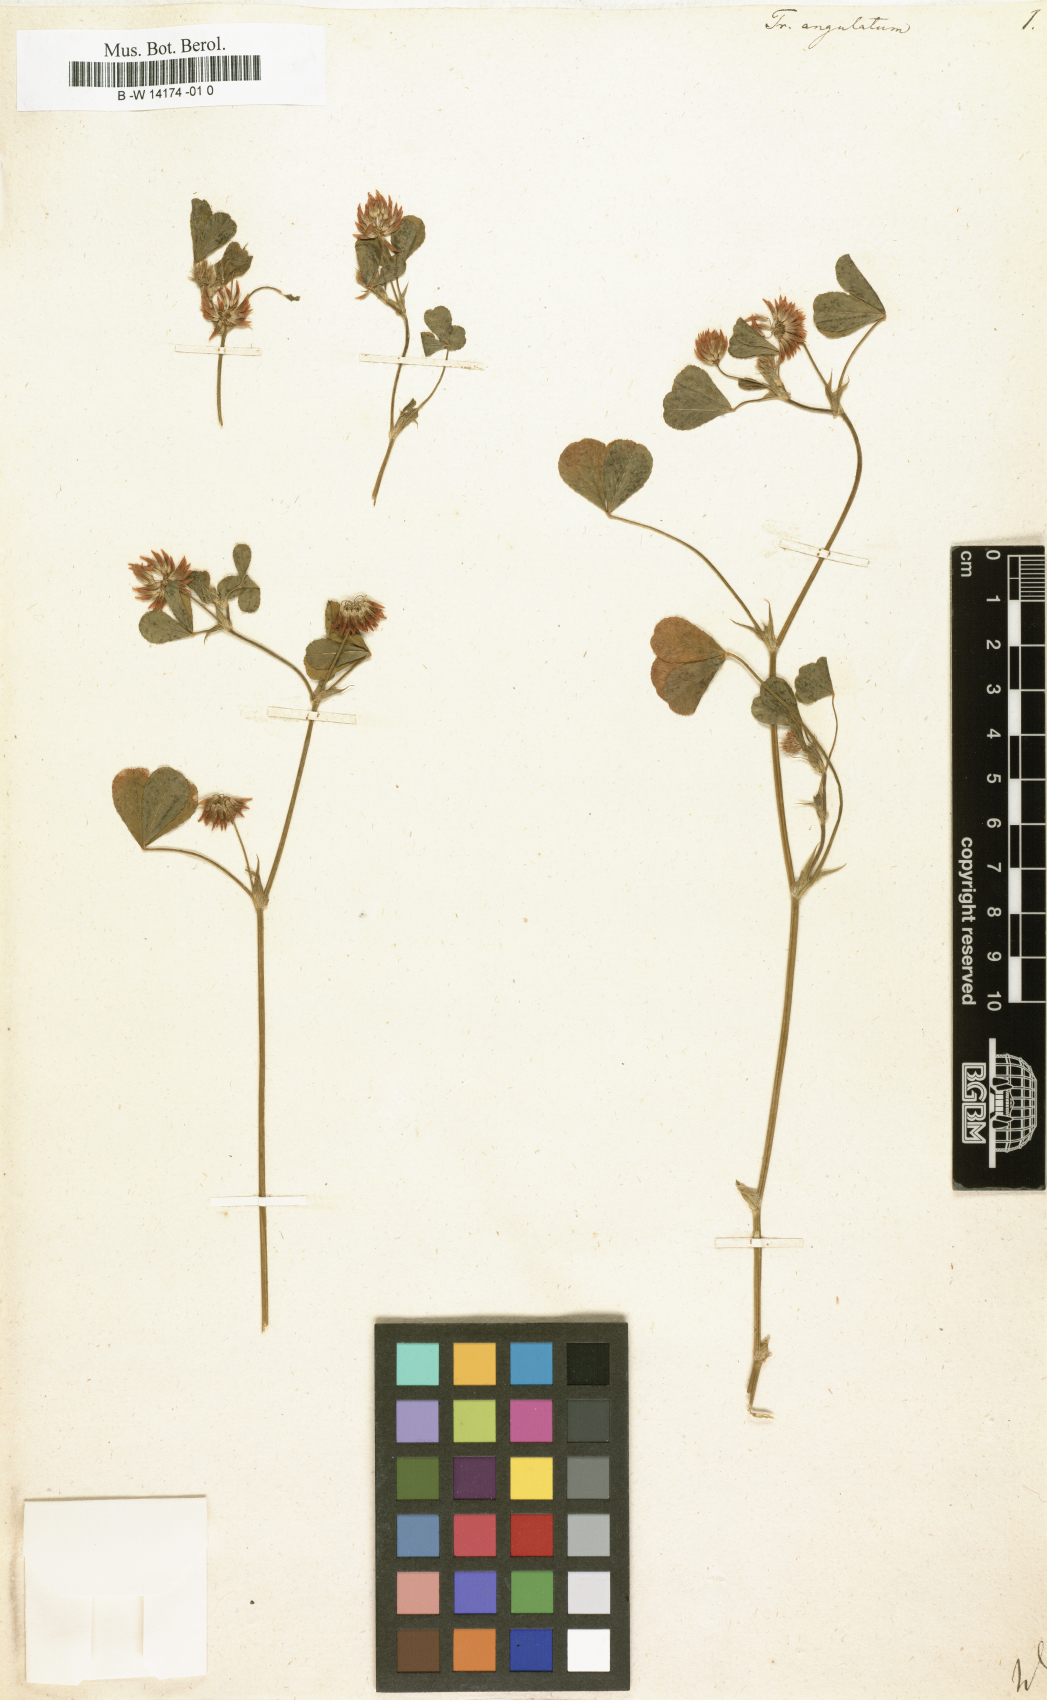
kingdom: Plantae
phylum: Tracheophyta
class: Magnoliopsida
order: Fabales
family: Fabaceae
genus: Trifolium
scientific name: Trifolium thalii
